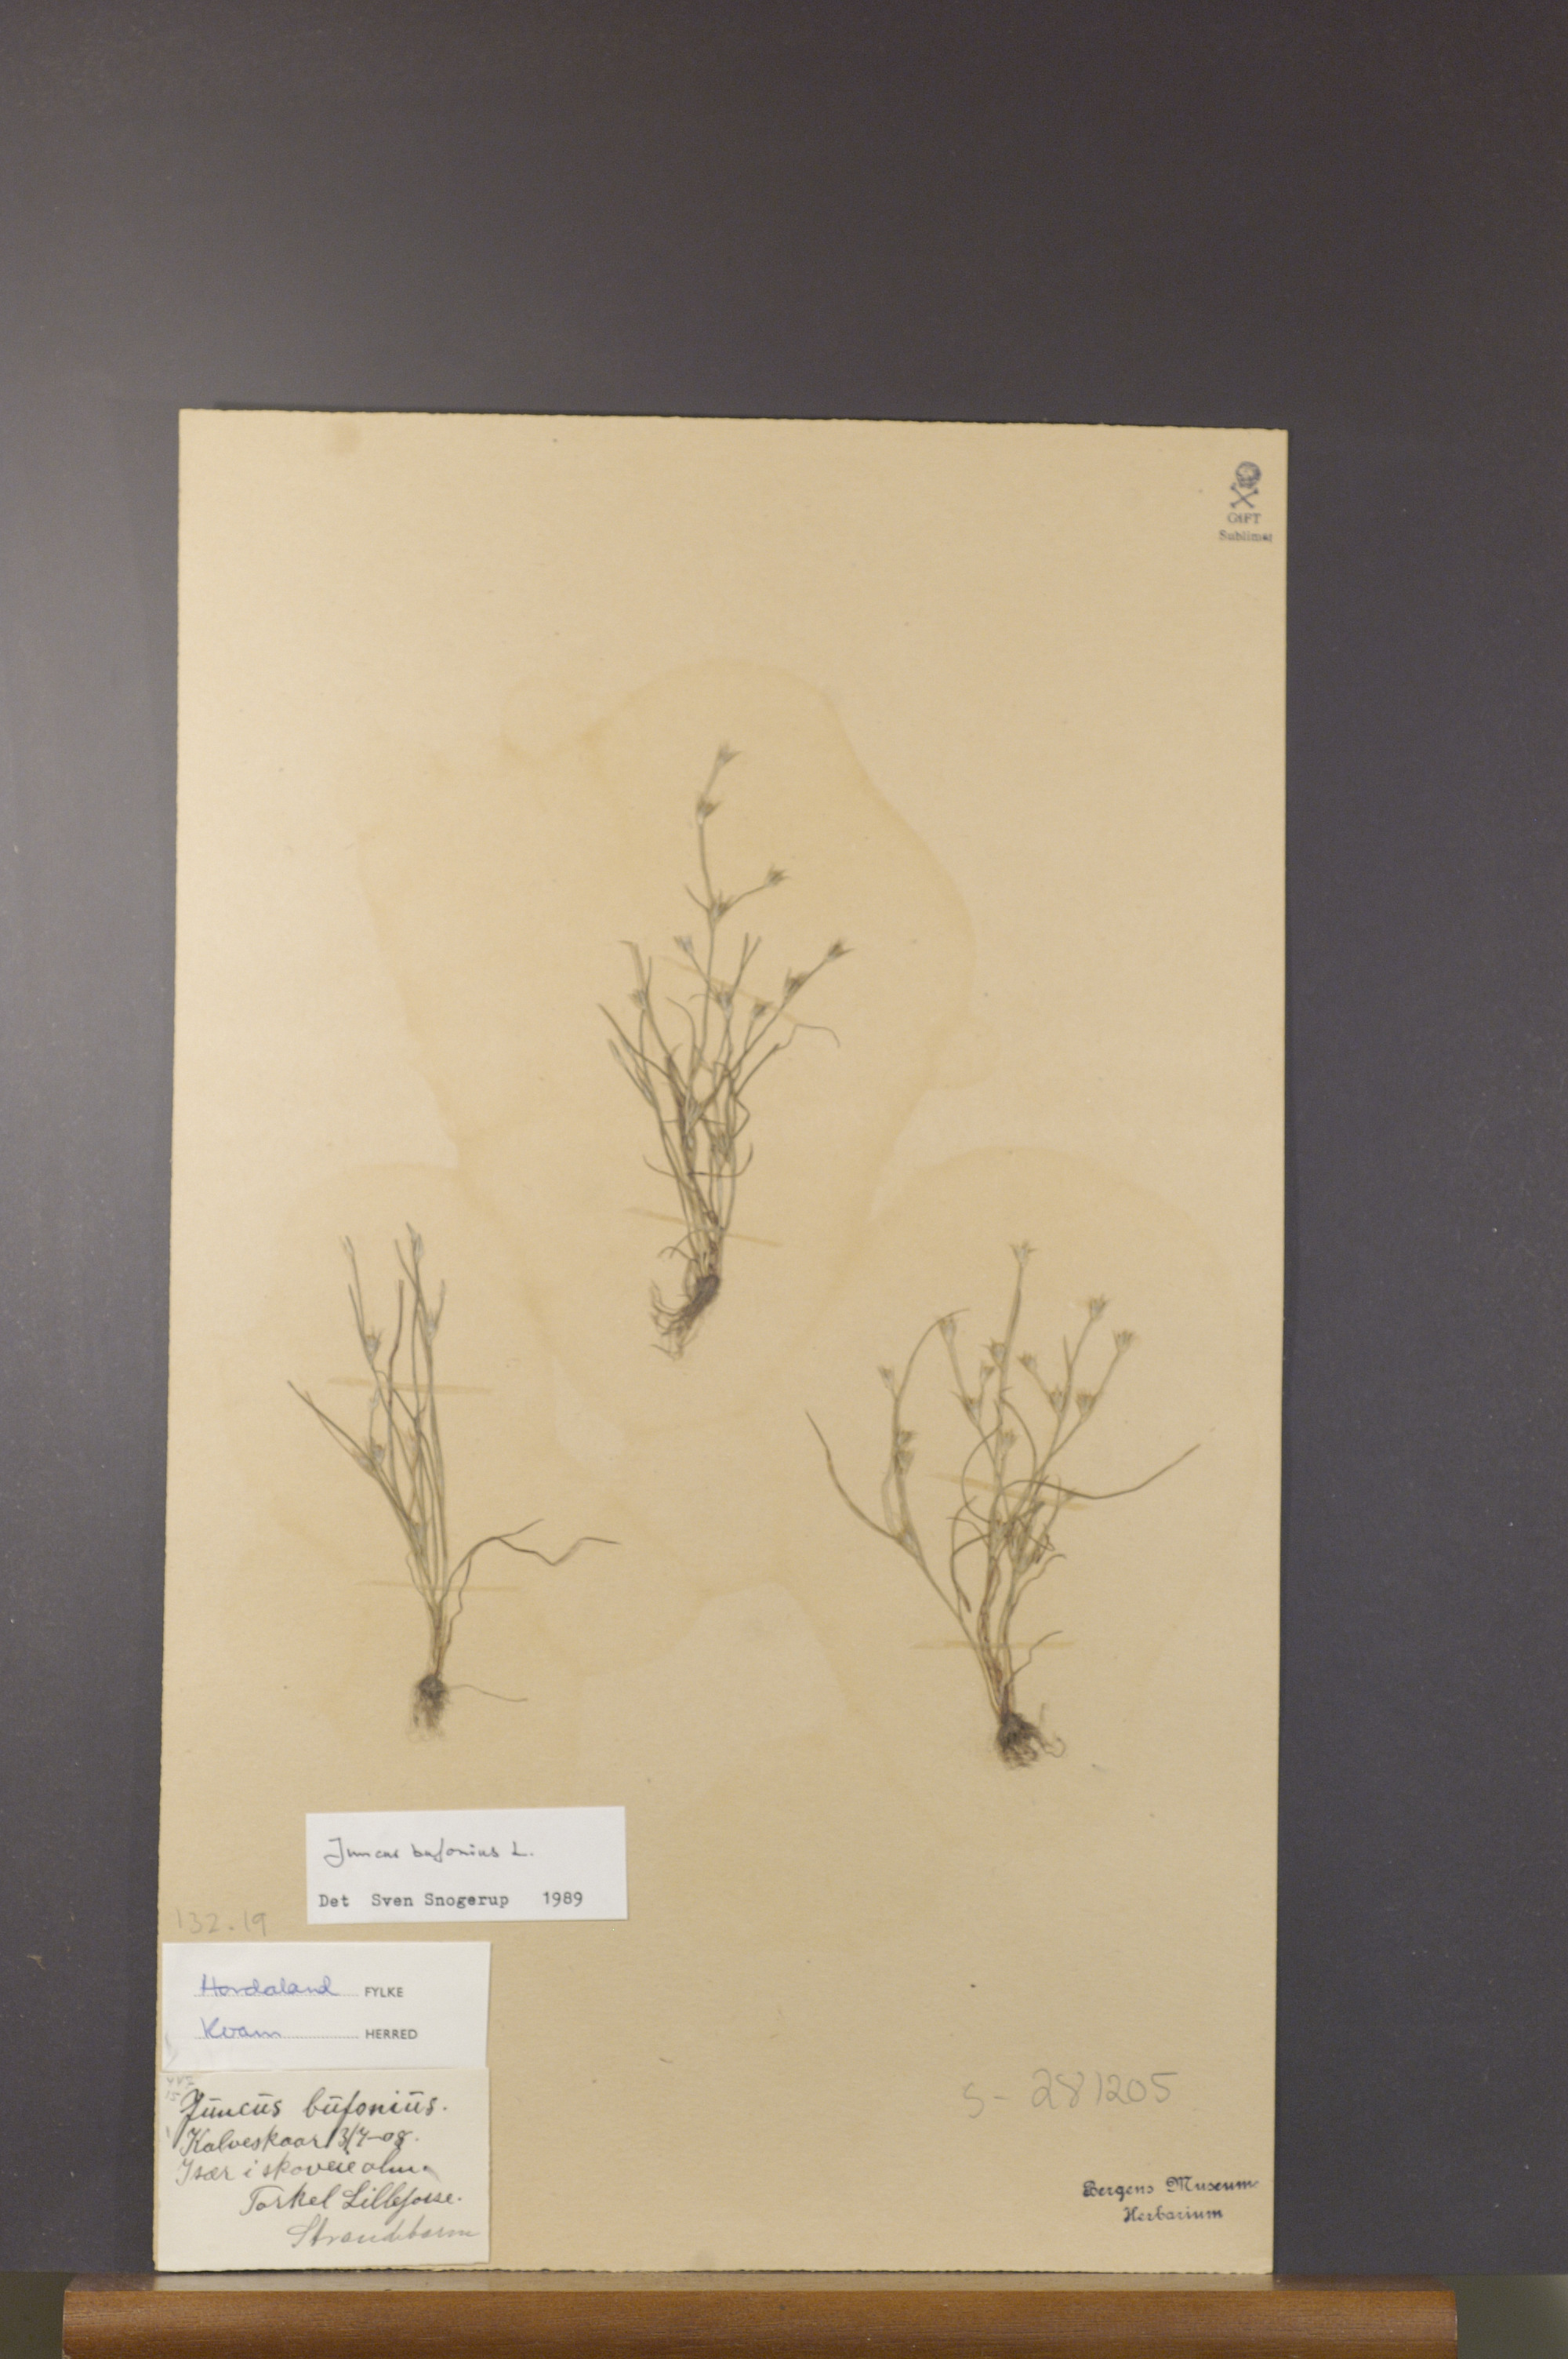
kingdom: Plantae
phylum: Tracheophyta
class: Liliopsida
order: Poales
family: Juncaceae
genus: Juncus
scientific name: Juncus bufonius
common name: Toad rush
